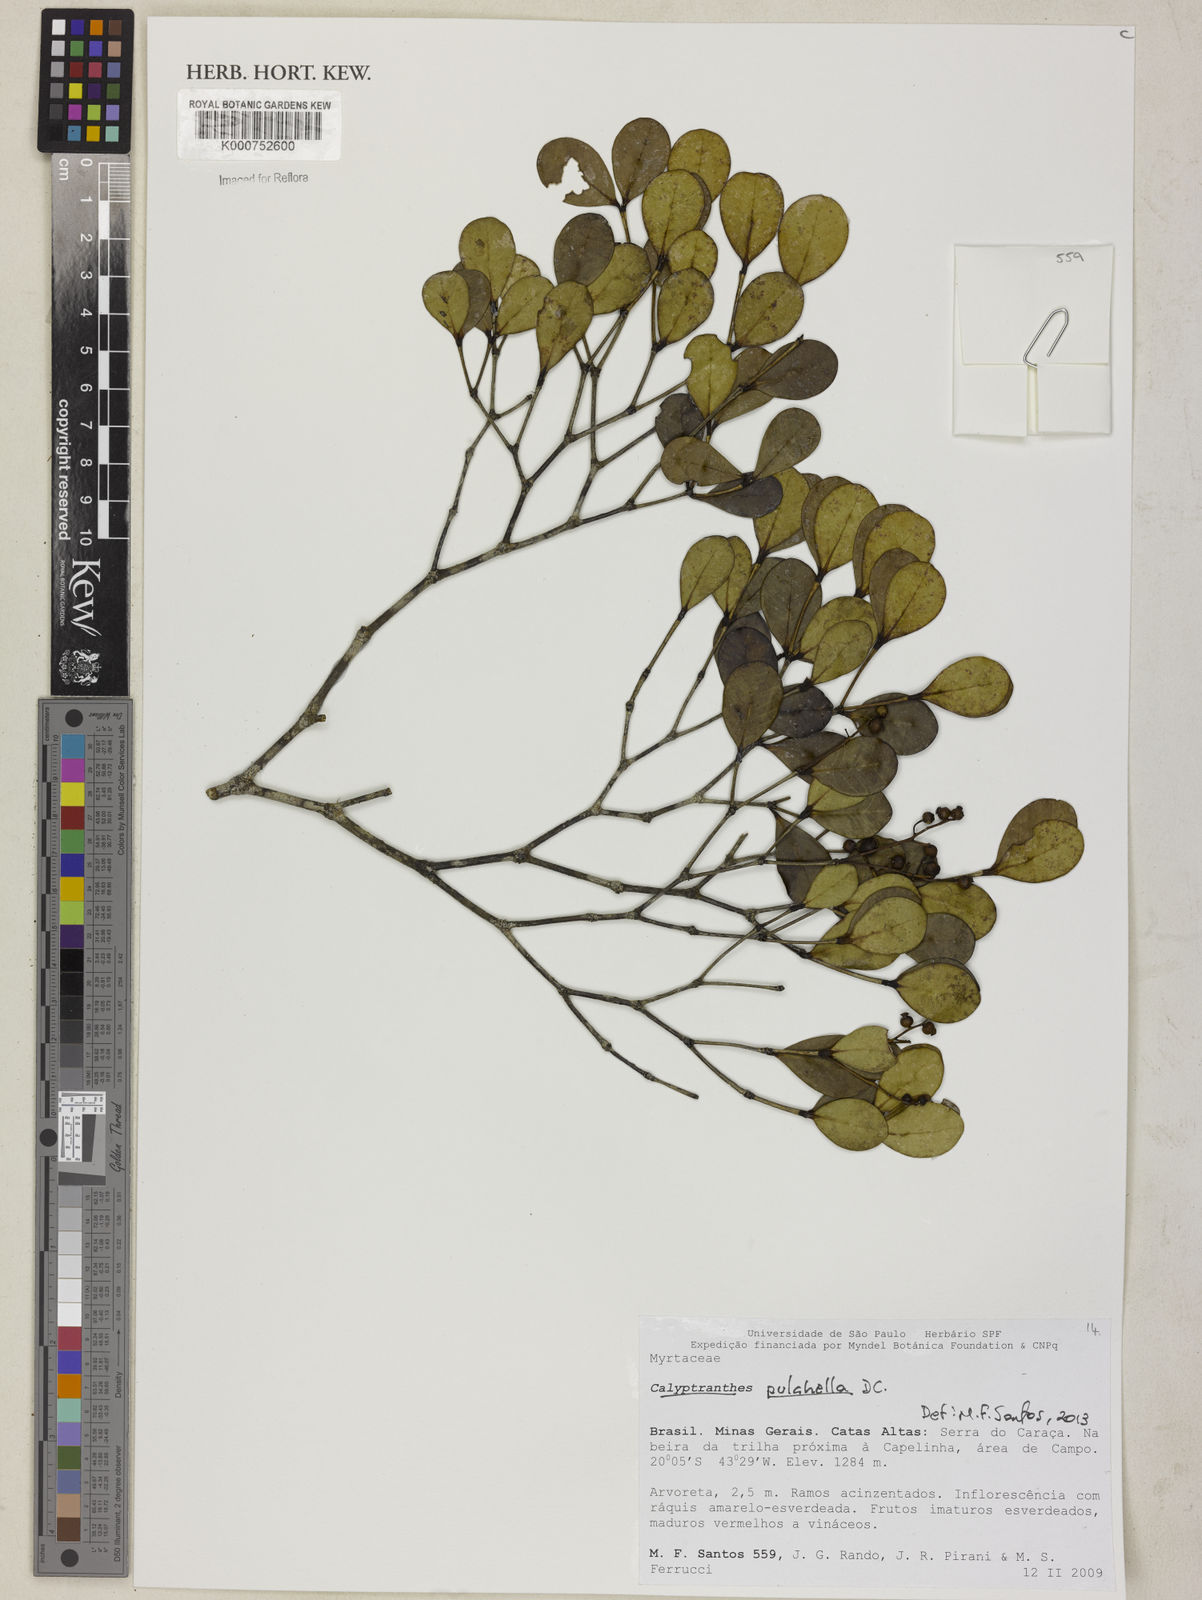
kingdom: Plantae
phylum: Tracheophyta
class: Magnoliopsida
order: Myrtales
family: Myrtaceae
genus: Myrcia
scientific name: Myrcia pulchella
